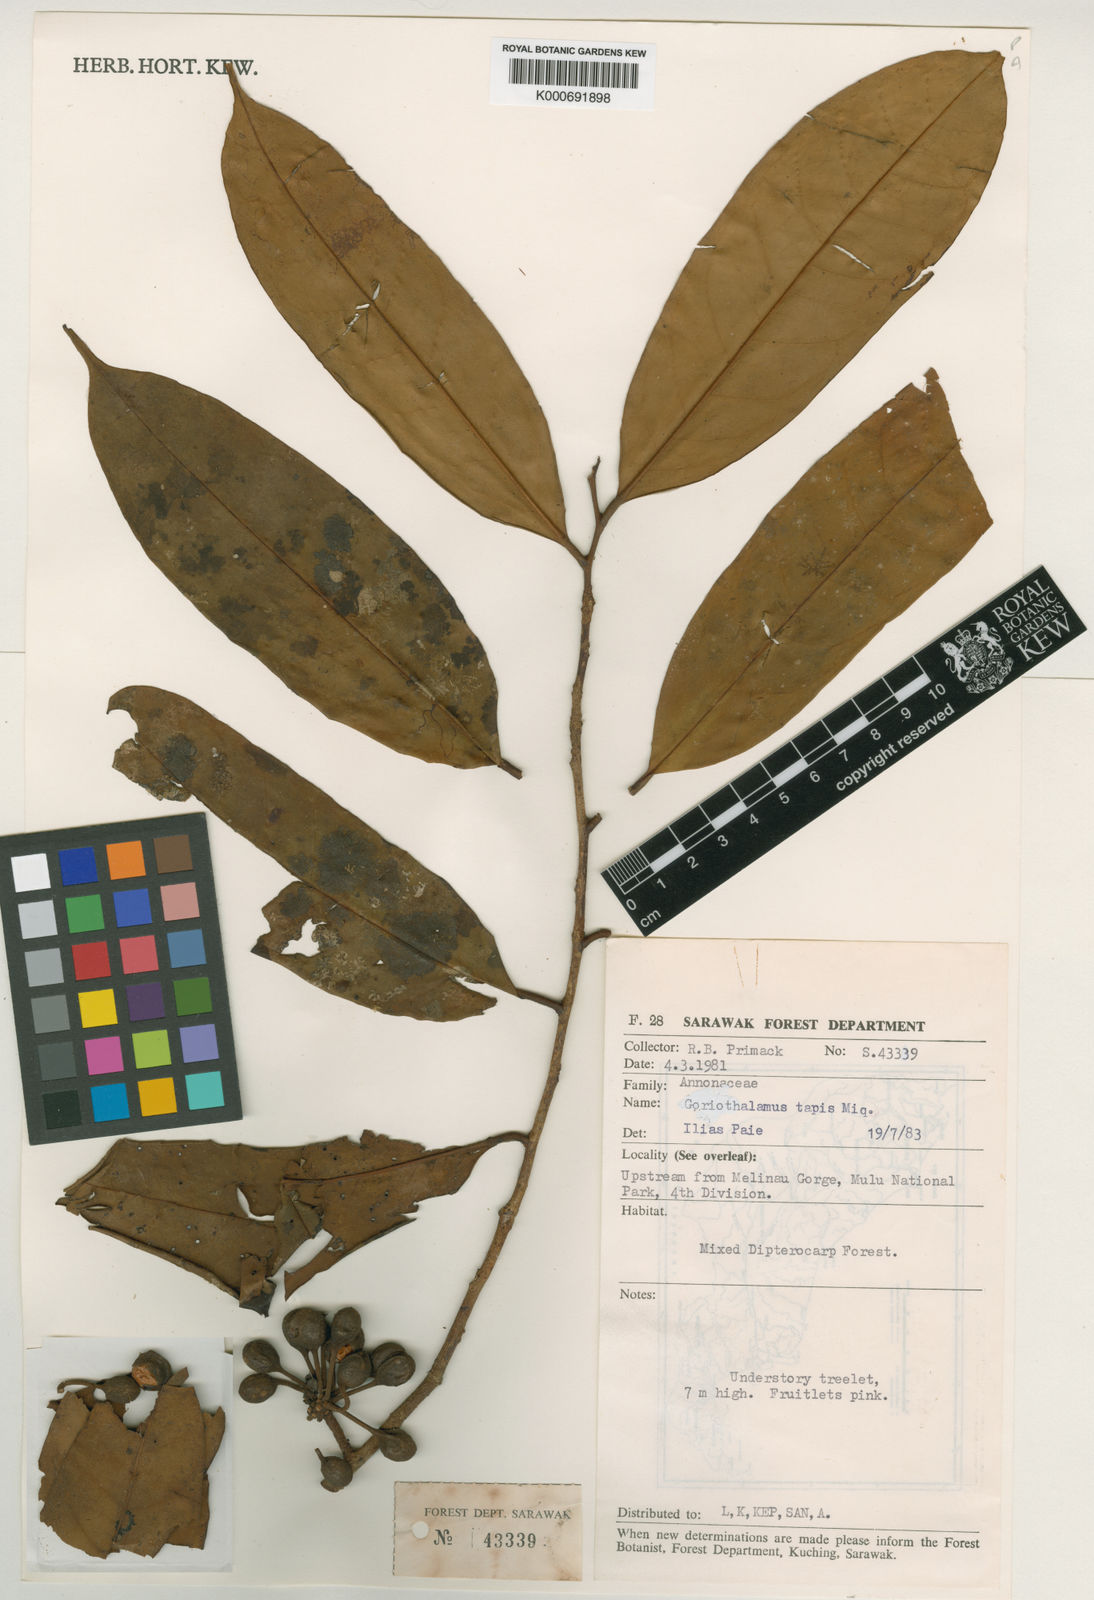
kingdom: Plantae
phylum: Tracheophyta
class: Magnoliopsida
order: Magnoliales
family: Annonaceae
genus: Goniothalamus
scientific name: Goniothalamus tapisoides
